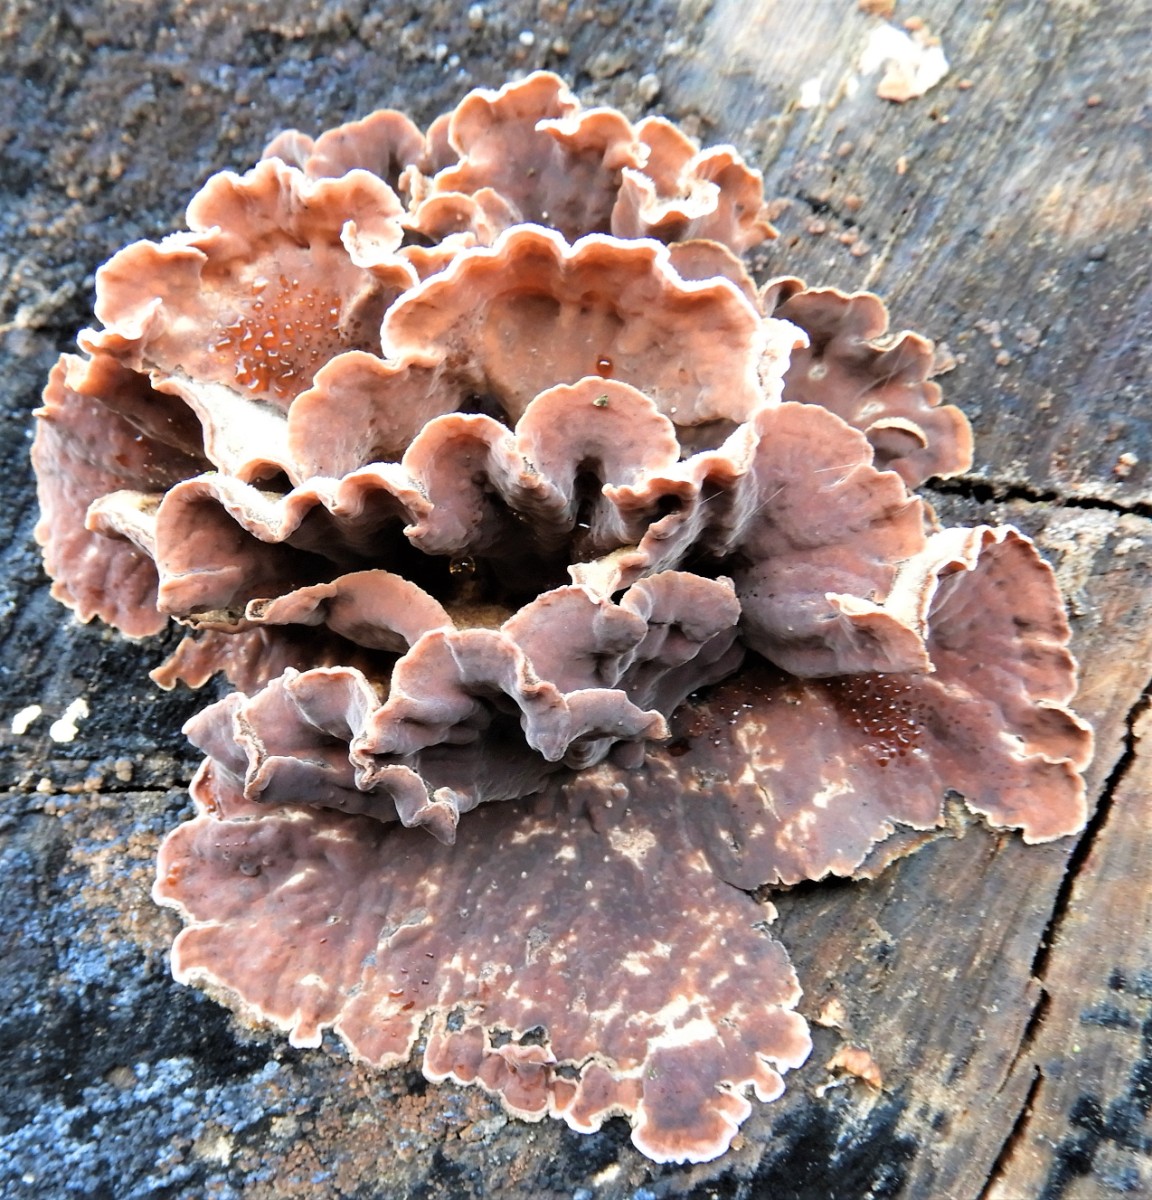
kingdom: Fungi
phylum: Basidiomycota
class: Agaricomycetes
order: Agaricales
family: Cyphellaceae
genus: Chondrostereum
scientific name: Chondrostereum purpureum
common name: purpurlædersvamp
